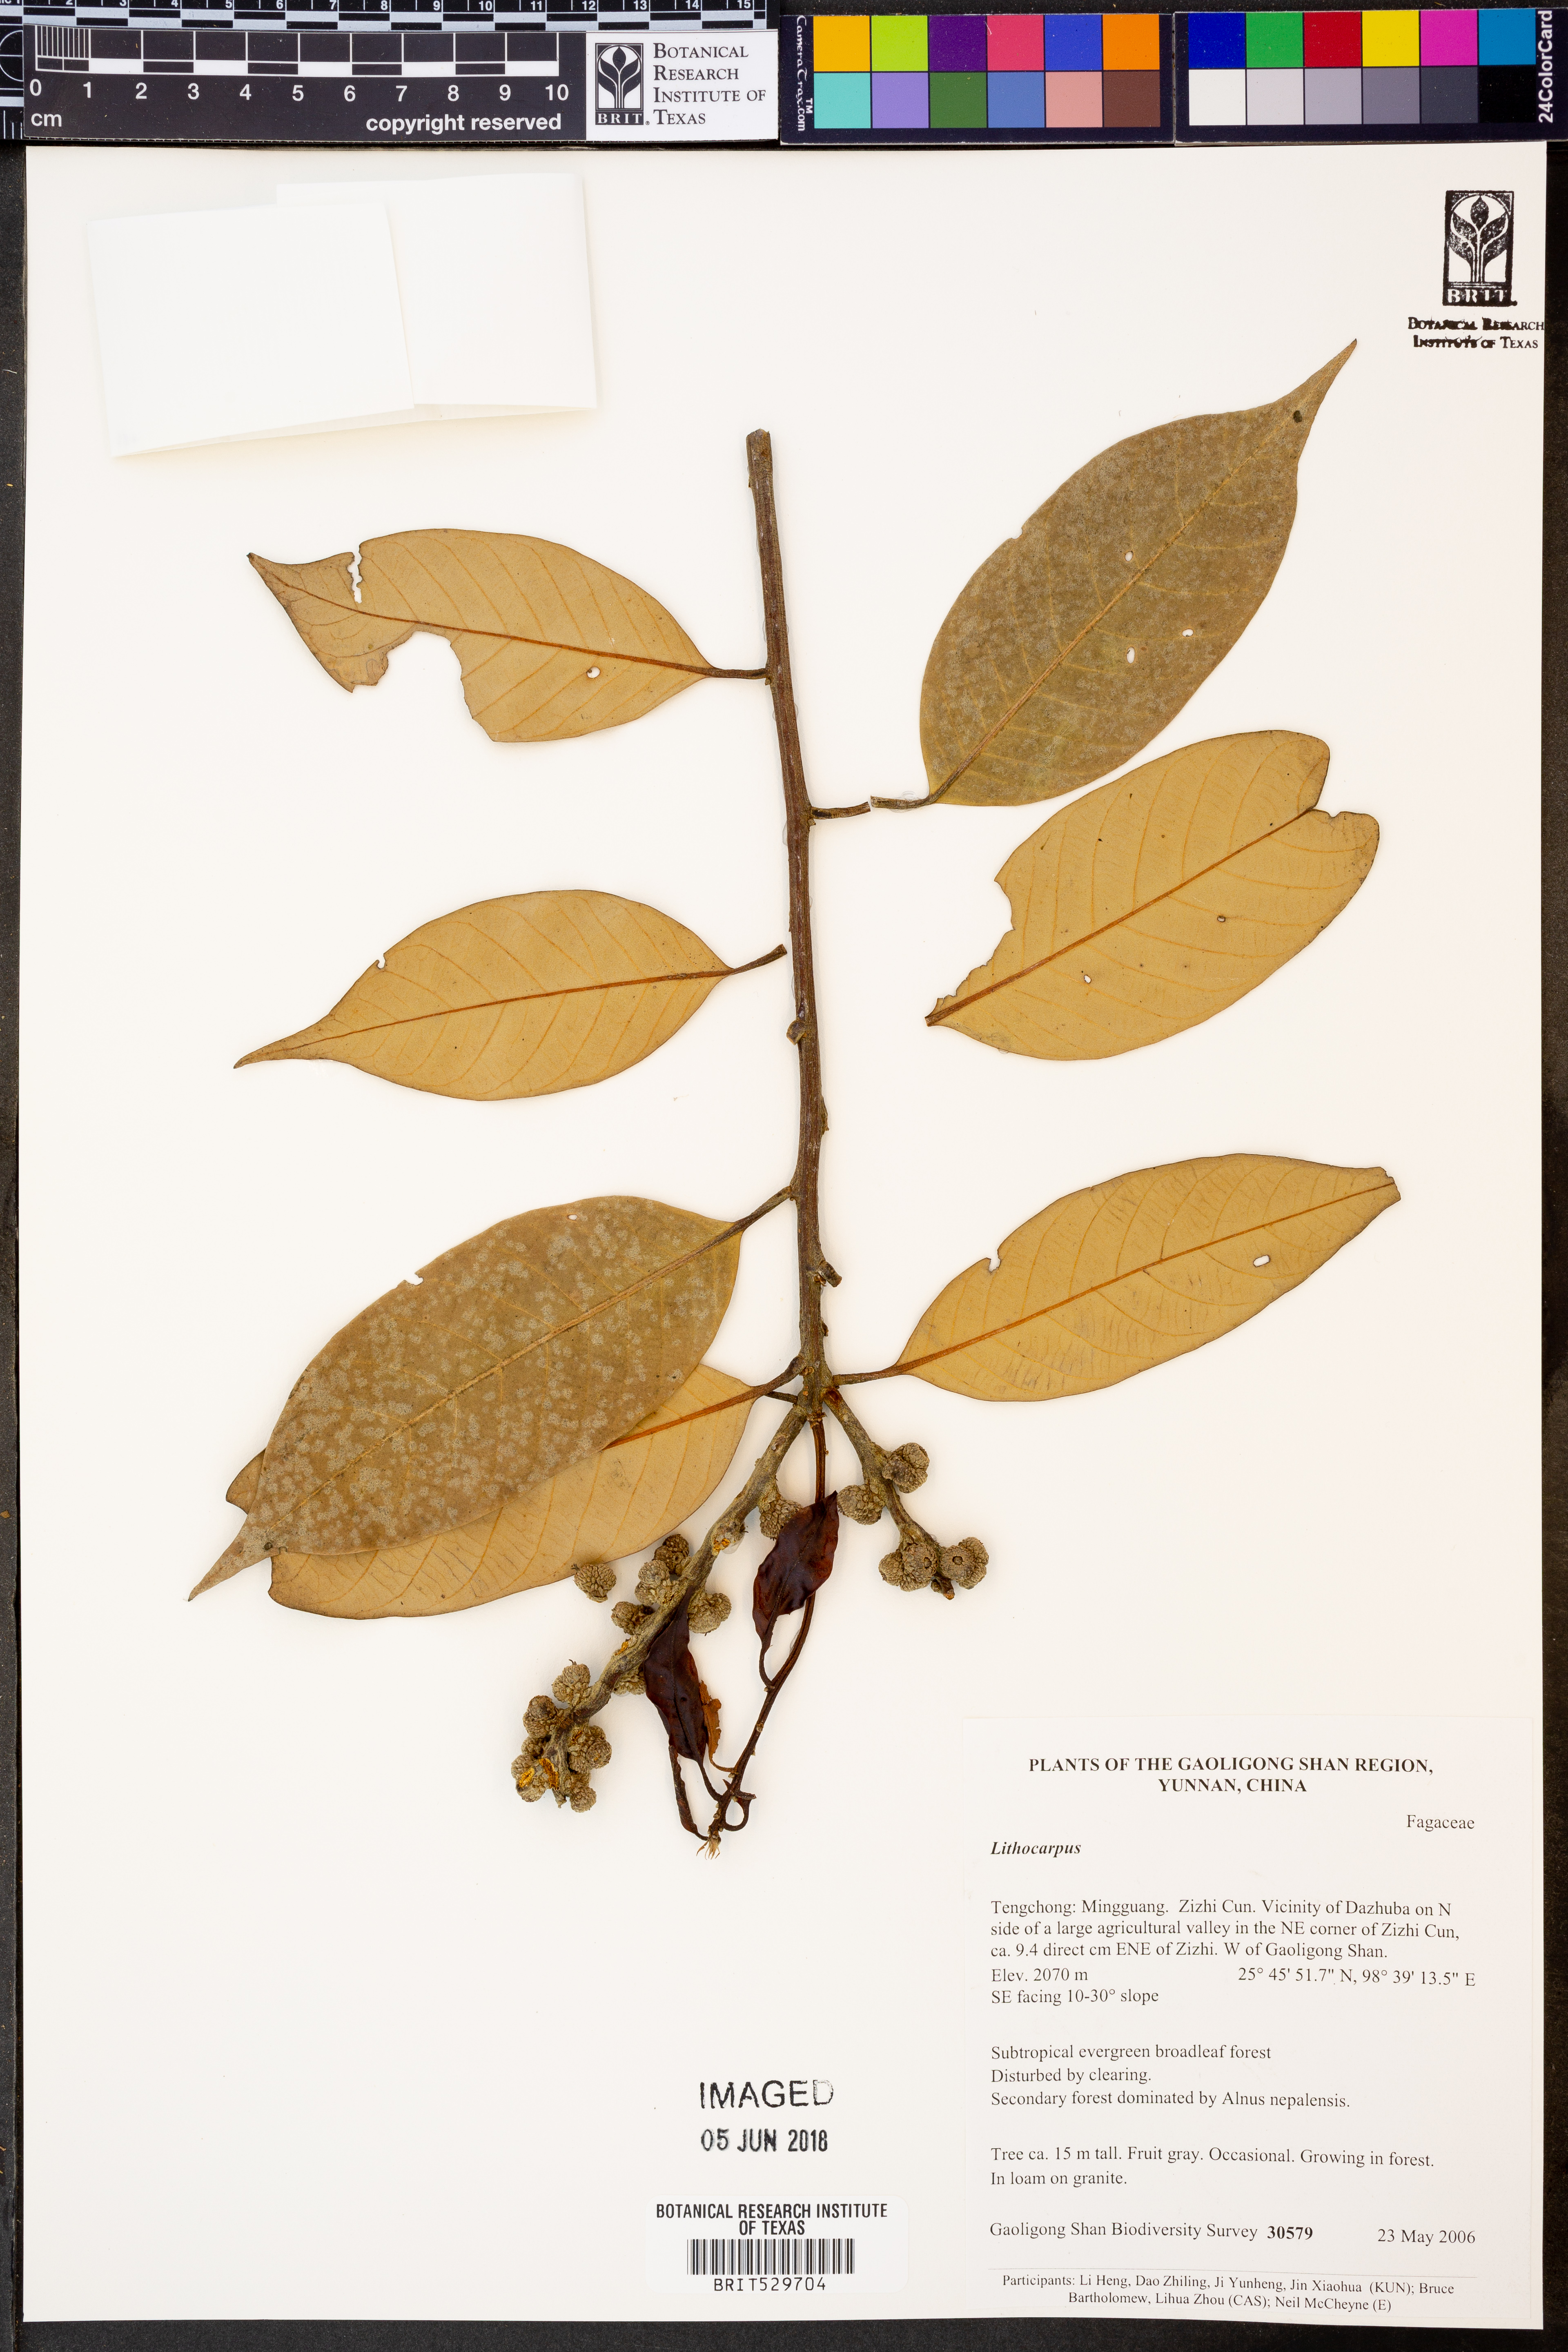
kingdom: Plantae
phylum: Tracheophyta
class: Magnoliopsida
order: Fagales
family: Fagaceae
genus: Lithocarpus
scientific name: Lithocarpus
